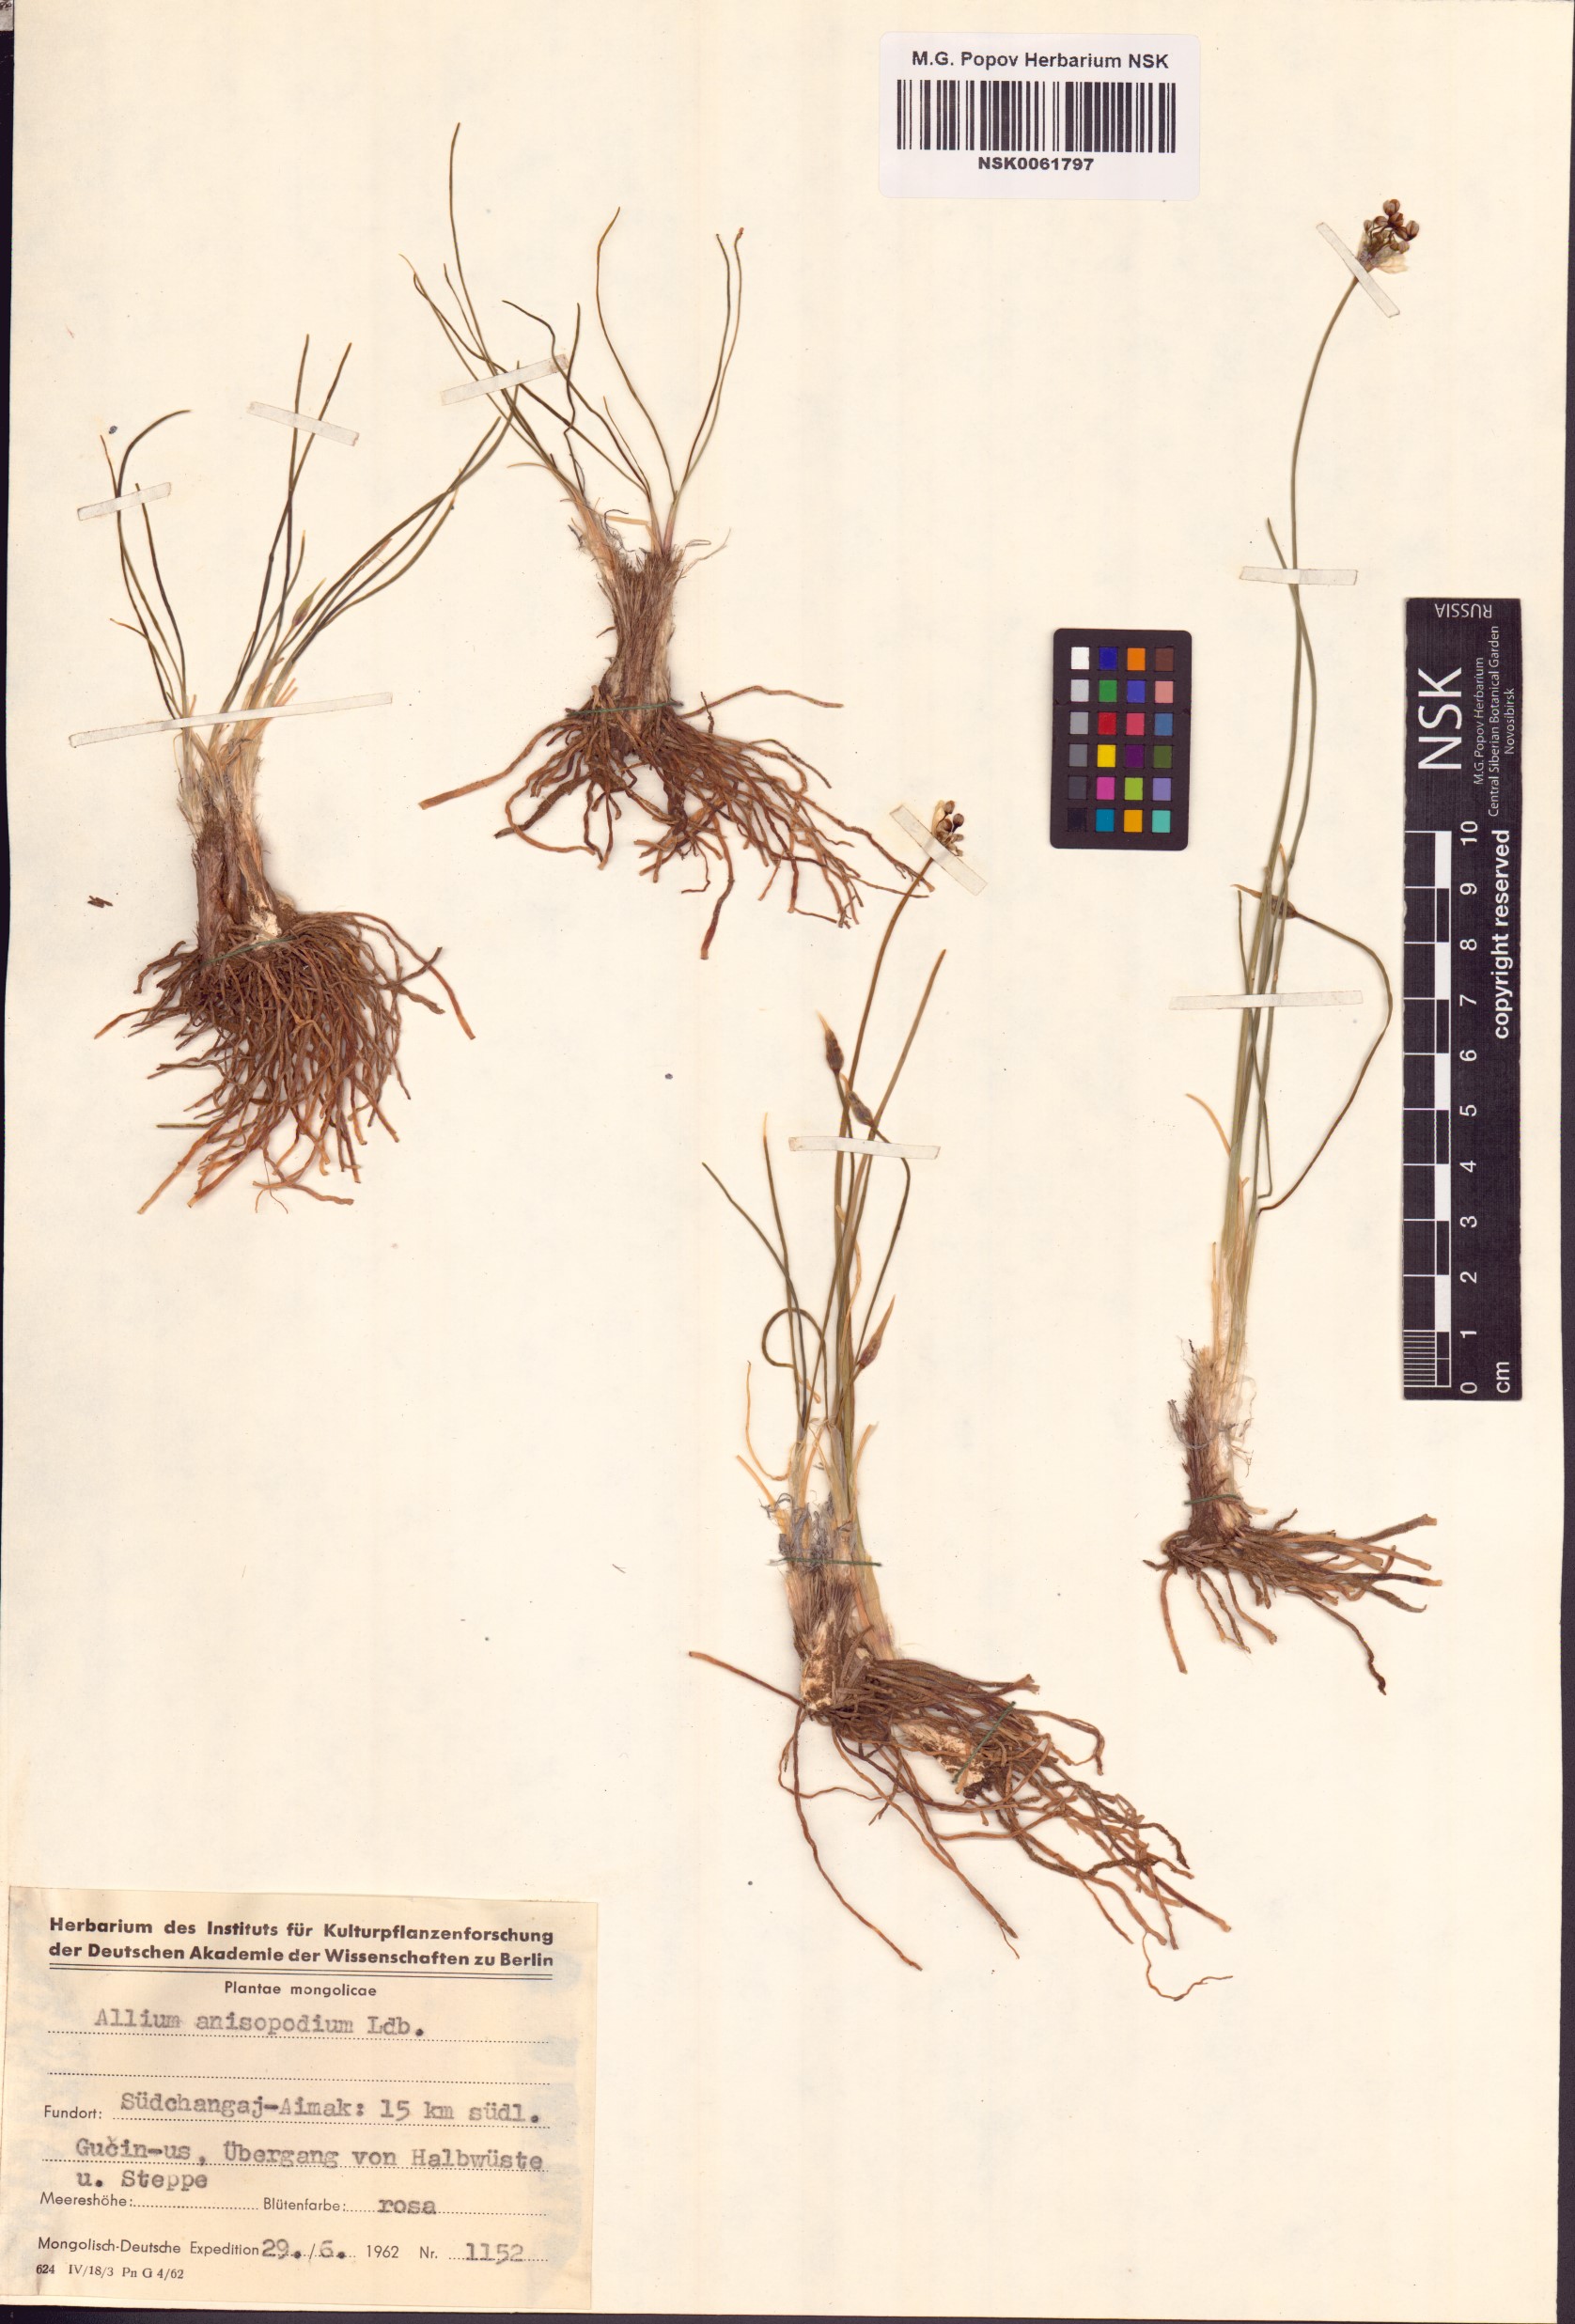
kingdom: Plantae
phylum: Tracheophyta
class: Liliopsida
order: Asparagales
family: Amaryllidaceae
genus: Allium
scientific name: Allium anisopodium
